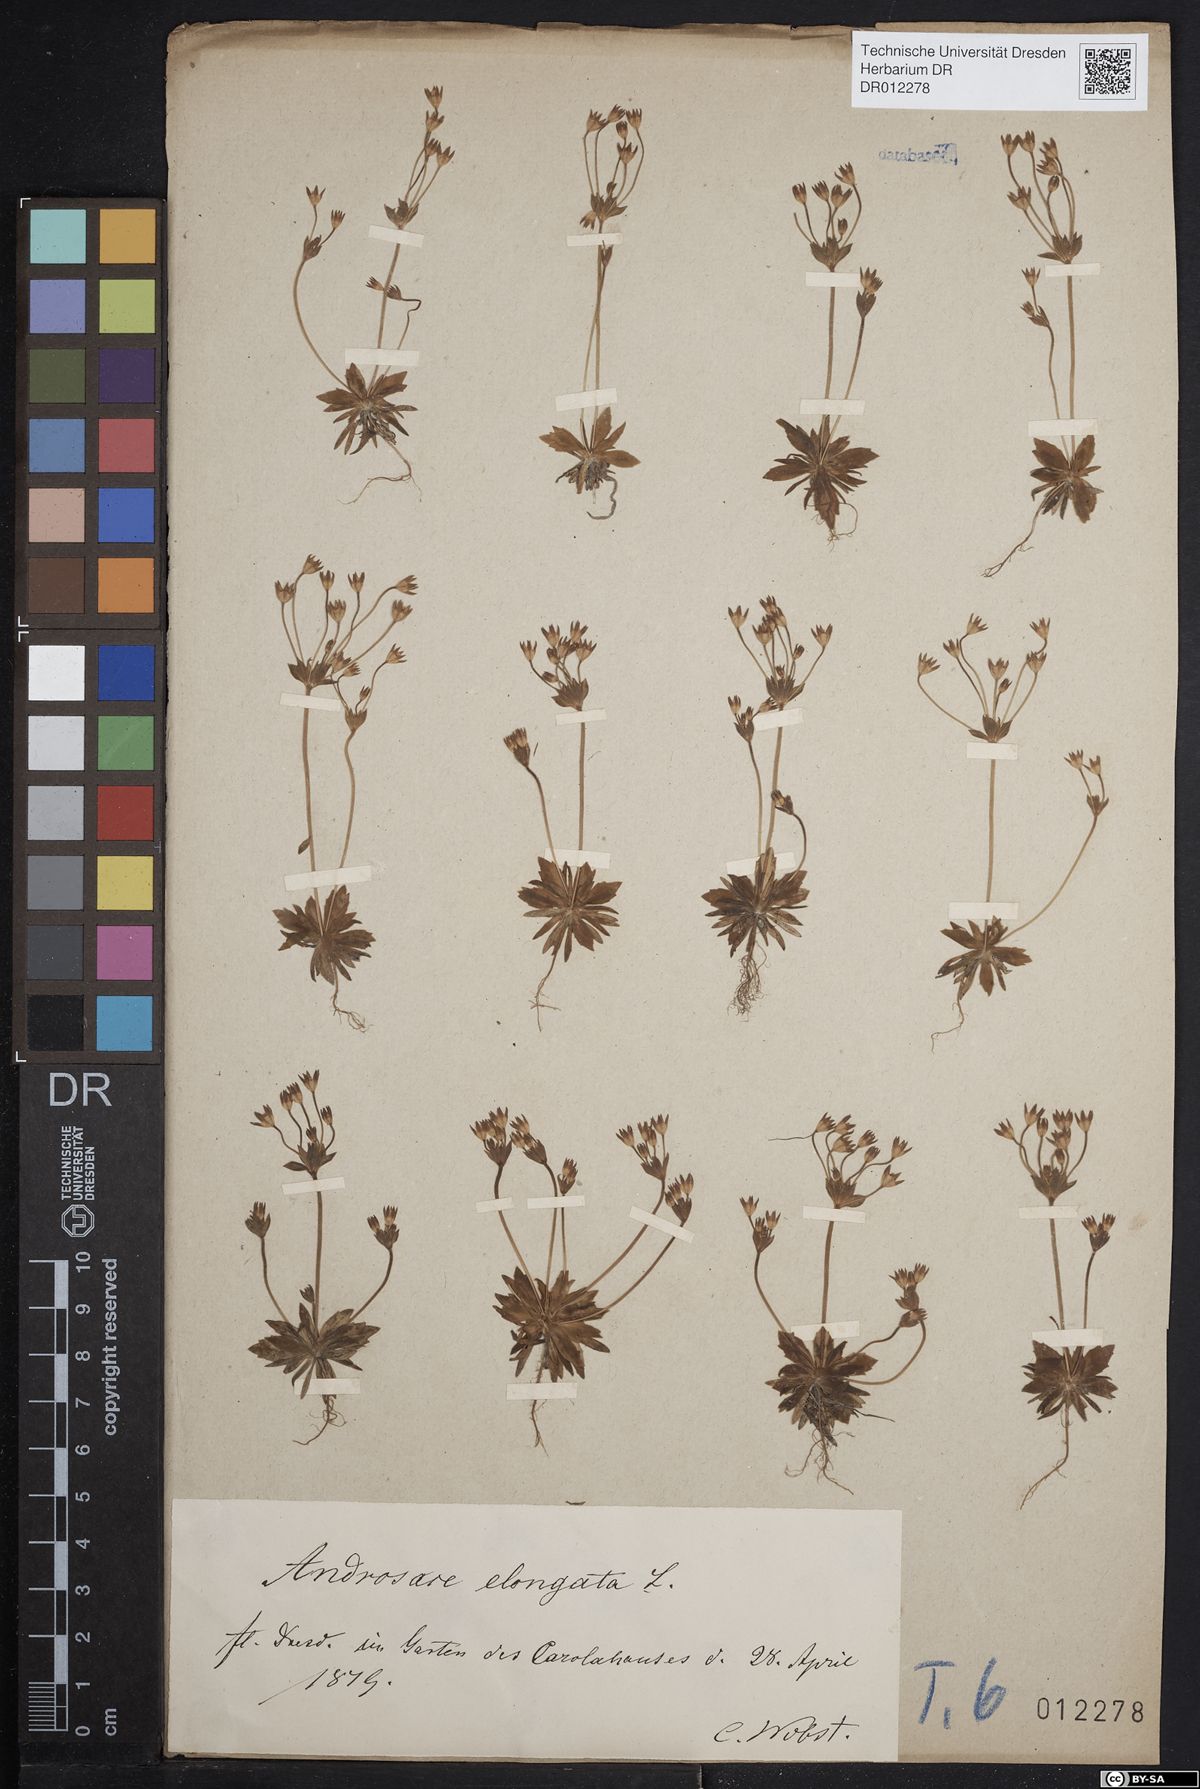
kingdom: Plantae
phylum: Tracheophyta
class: Magnoliopsida
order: Ericales
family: Primulaceae
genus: Androsace
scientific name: Androsace elongata
